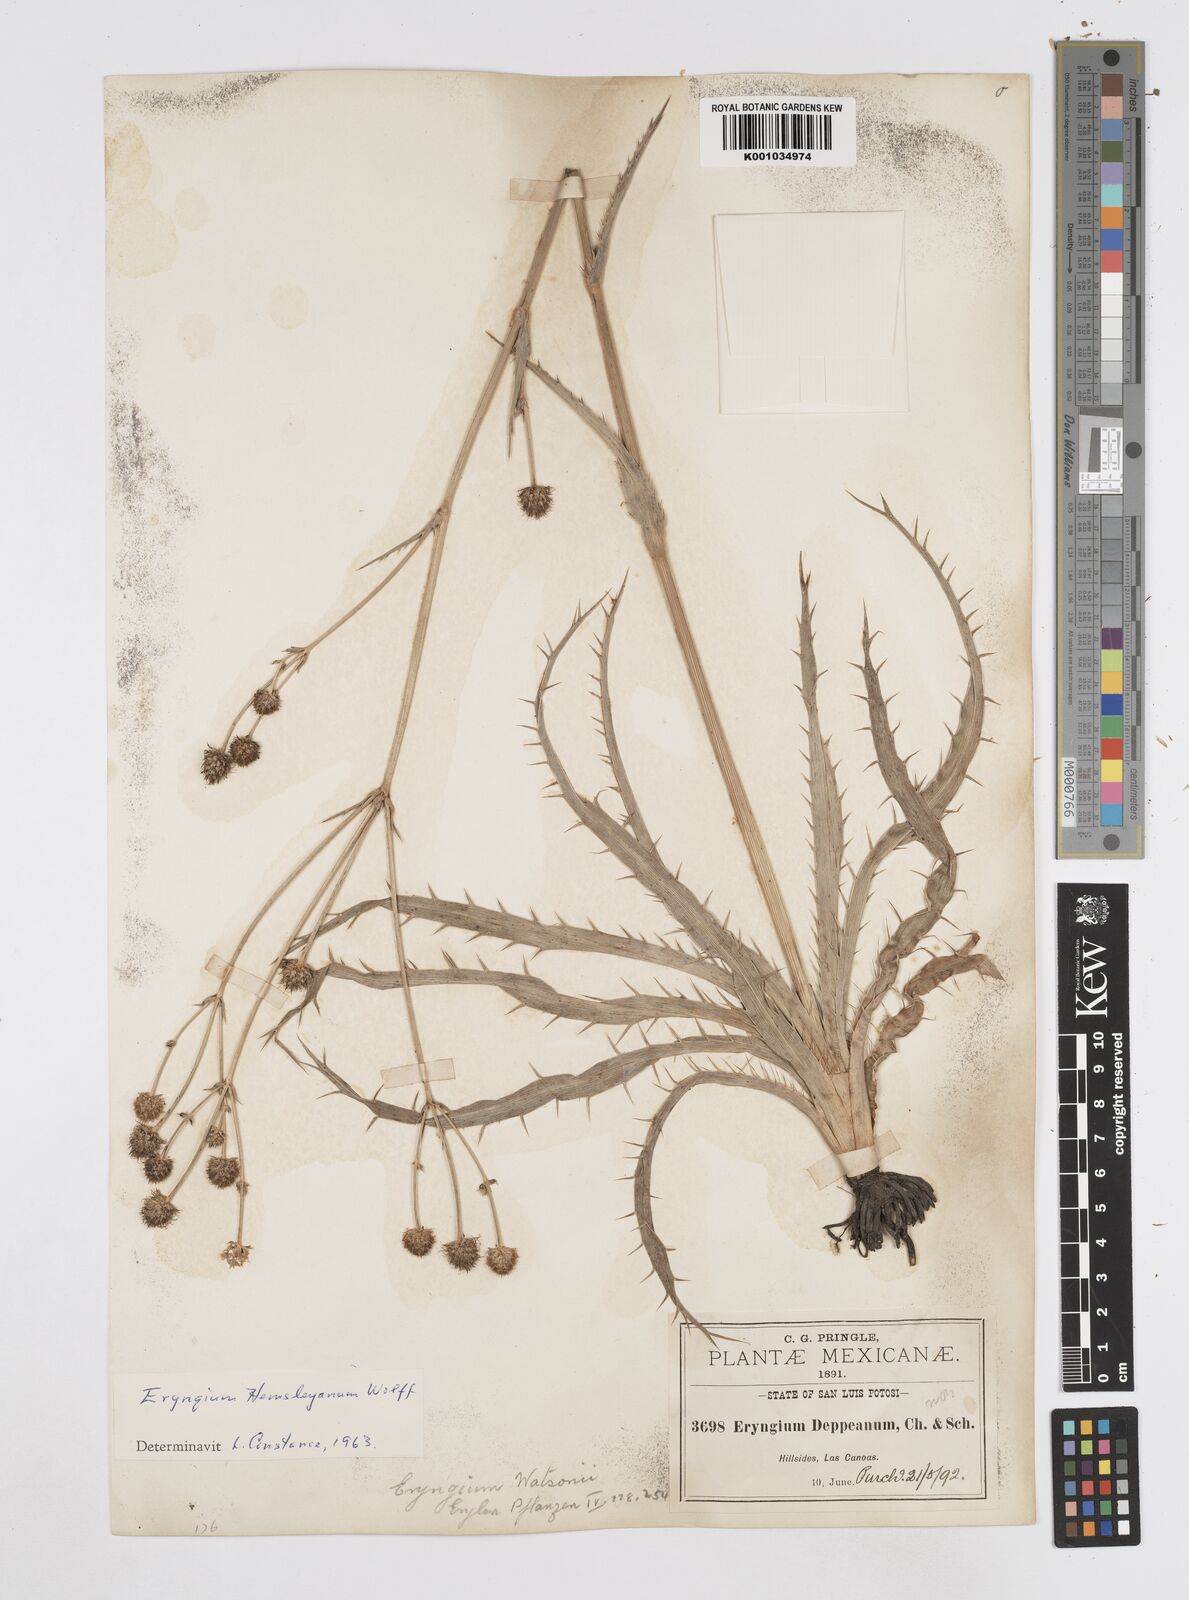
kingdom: Plantae
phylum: Tracheophyta
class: Magnoliopsida
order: Apiales
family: Apiaceae
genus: Eryngium
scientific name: Eryngium hemsleyanum
